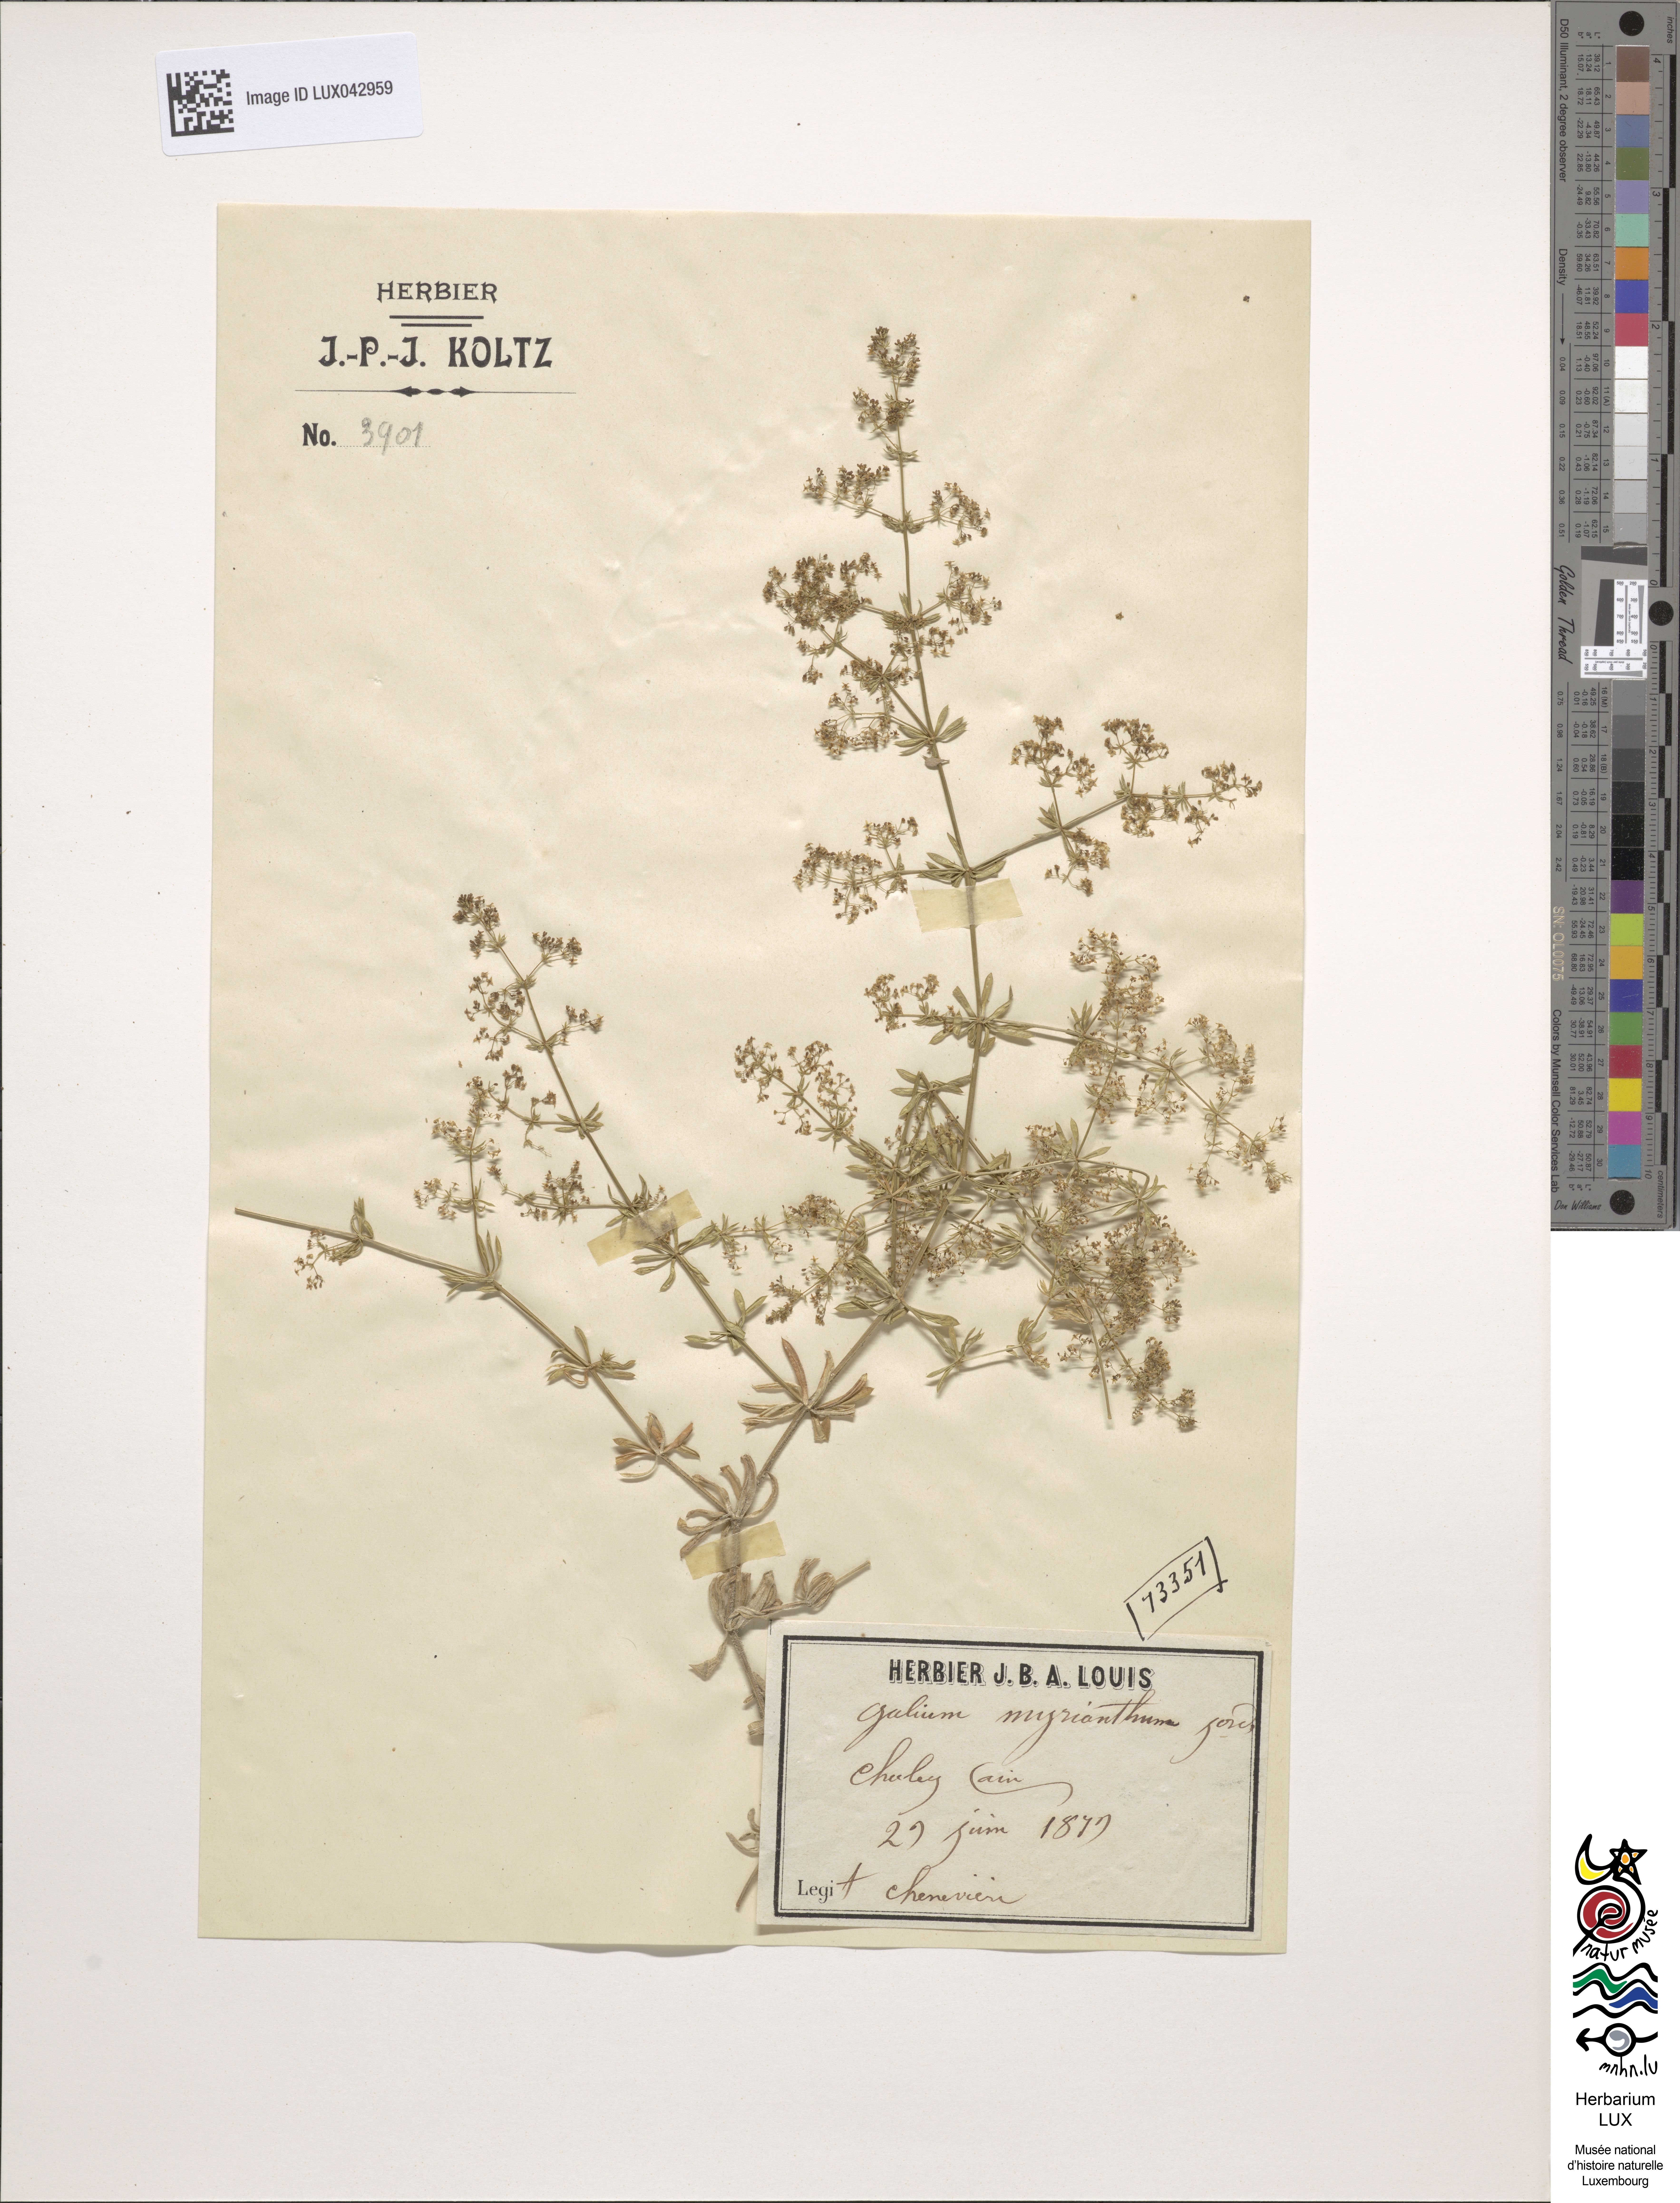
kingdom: Plantae
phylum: Tracheophyta
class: Magnoliopsida
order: Gentianales
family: Rubiaceae
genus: Galium
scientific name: Galium obliquum
